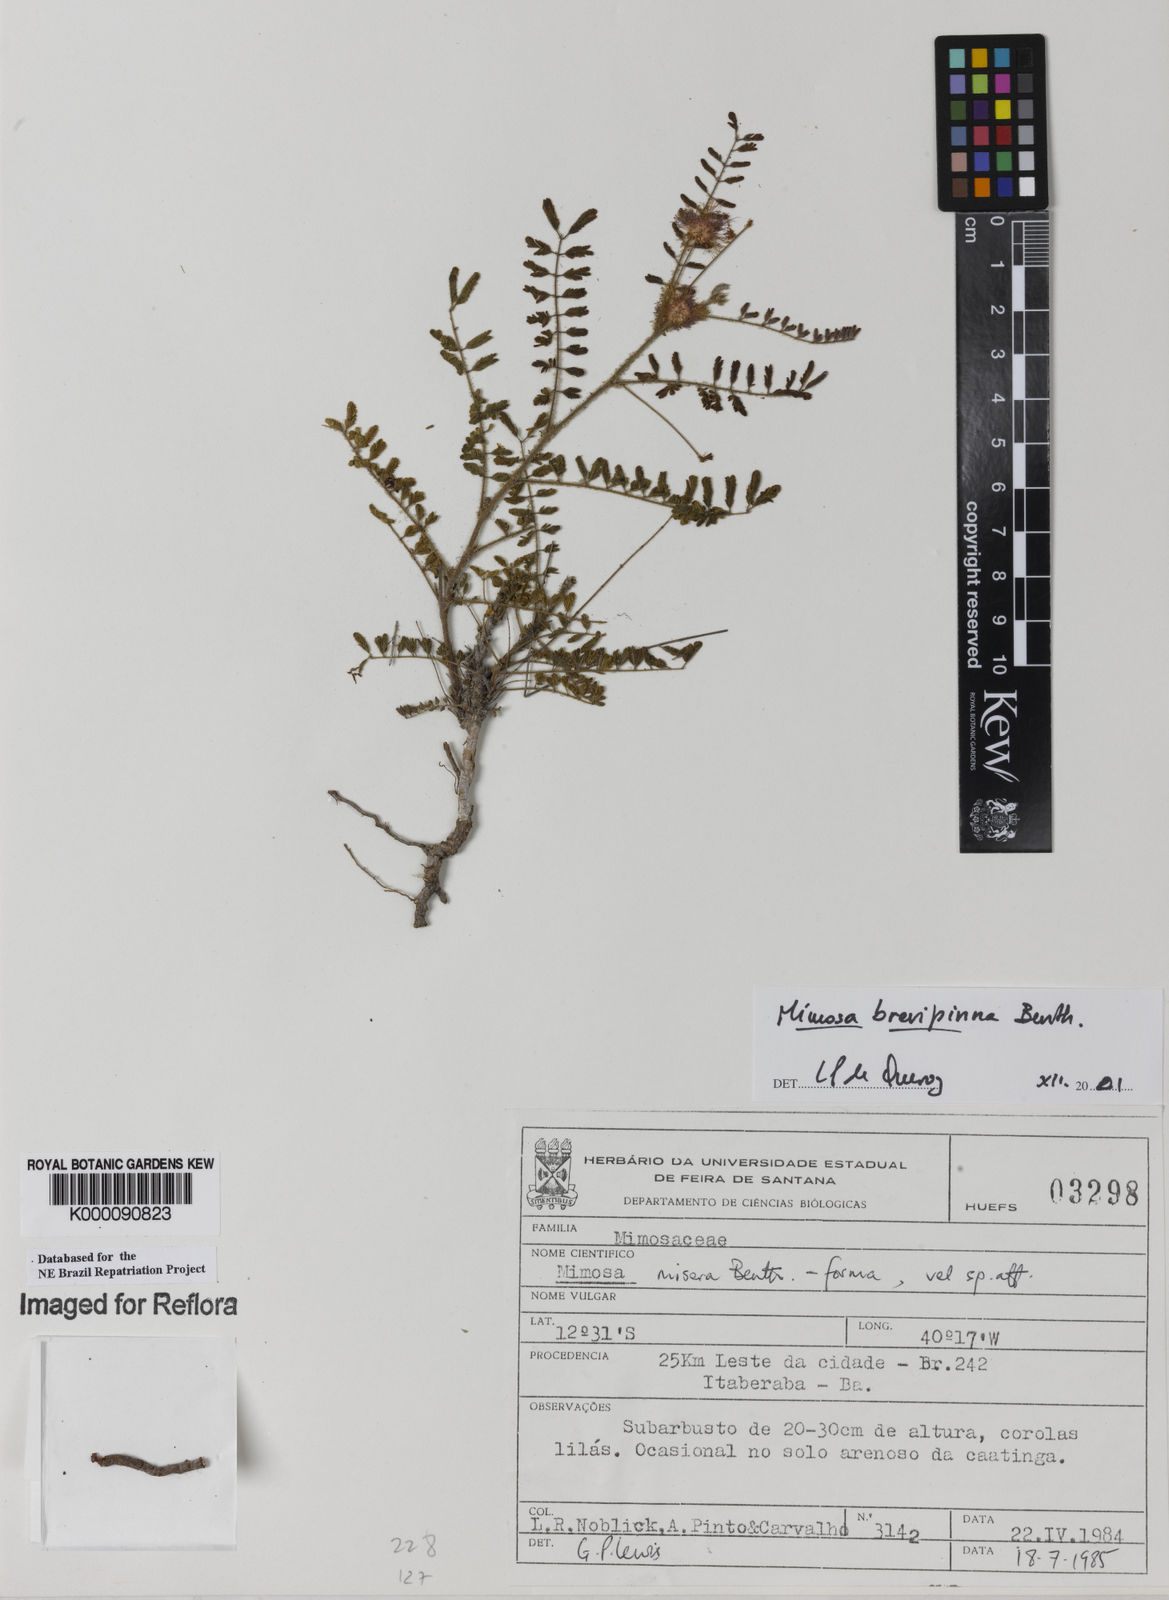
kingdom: Plantae
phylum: Tracheophyta
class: Magnoliopsida
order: Fabales
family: Fabaceae
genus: Mimosa
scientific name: Mimosa brevipinna
